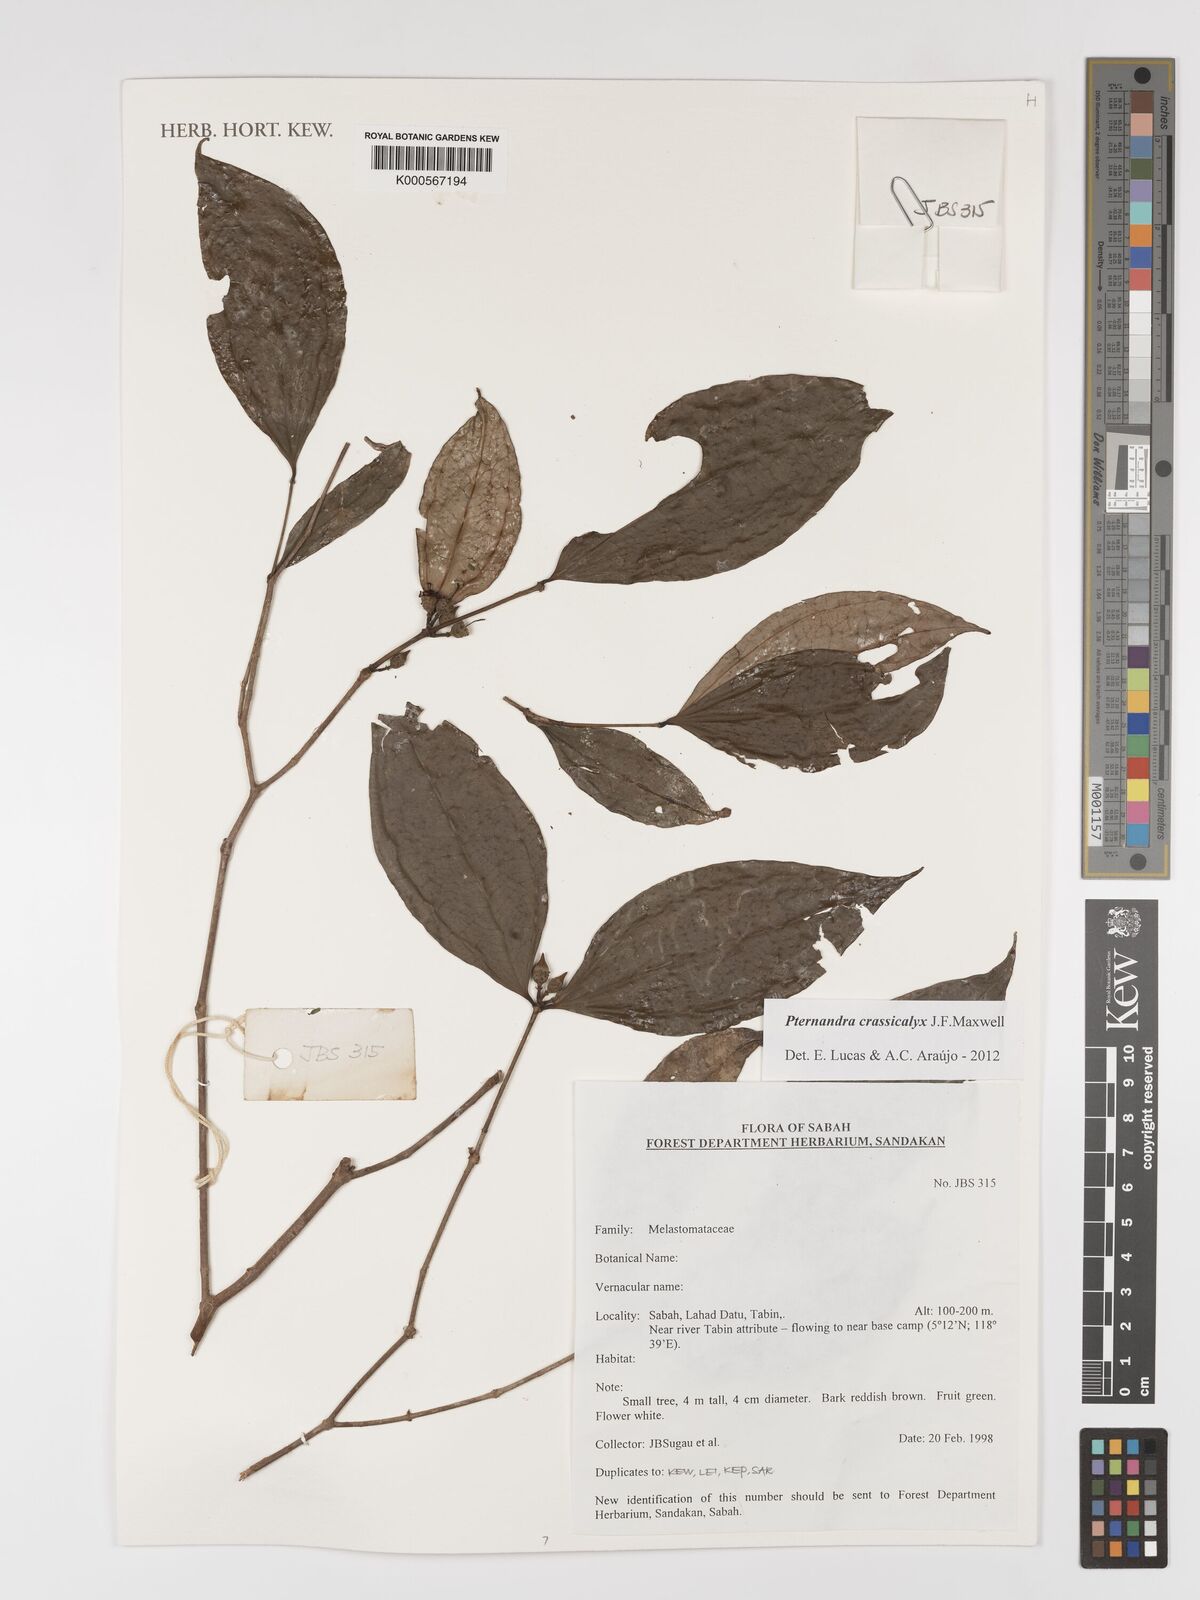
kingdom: Plantae
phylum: Tracheophyta
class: Magnoliopsida
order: Myrtales
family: Melastomataceae
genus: Pternandra
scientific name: Pternandra crassicalyx
